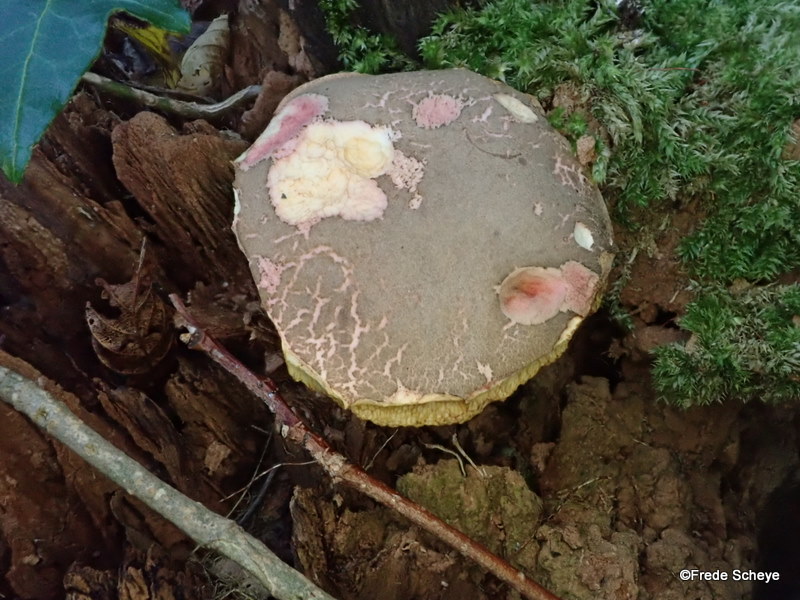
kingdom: Fungi
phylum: Basidiomycota
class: Agaricomycetes
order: Boletales
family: Boletaceae
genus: Xerocomellus
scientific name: Xerocomellus chrysenteron
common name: rødsprukken rørhat
